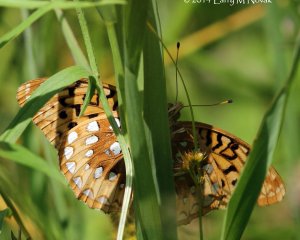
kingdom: Animalia
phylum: Arthropoda
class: Insecta
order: Lepidoptera
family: Nymphalidae
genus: Speyeria
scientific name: Speyeria cybele
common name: Great Spangled Fritillary
